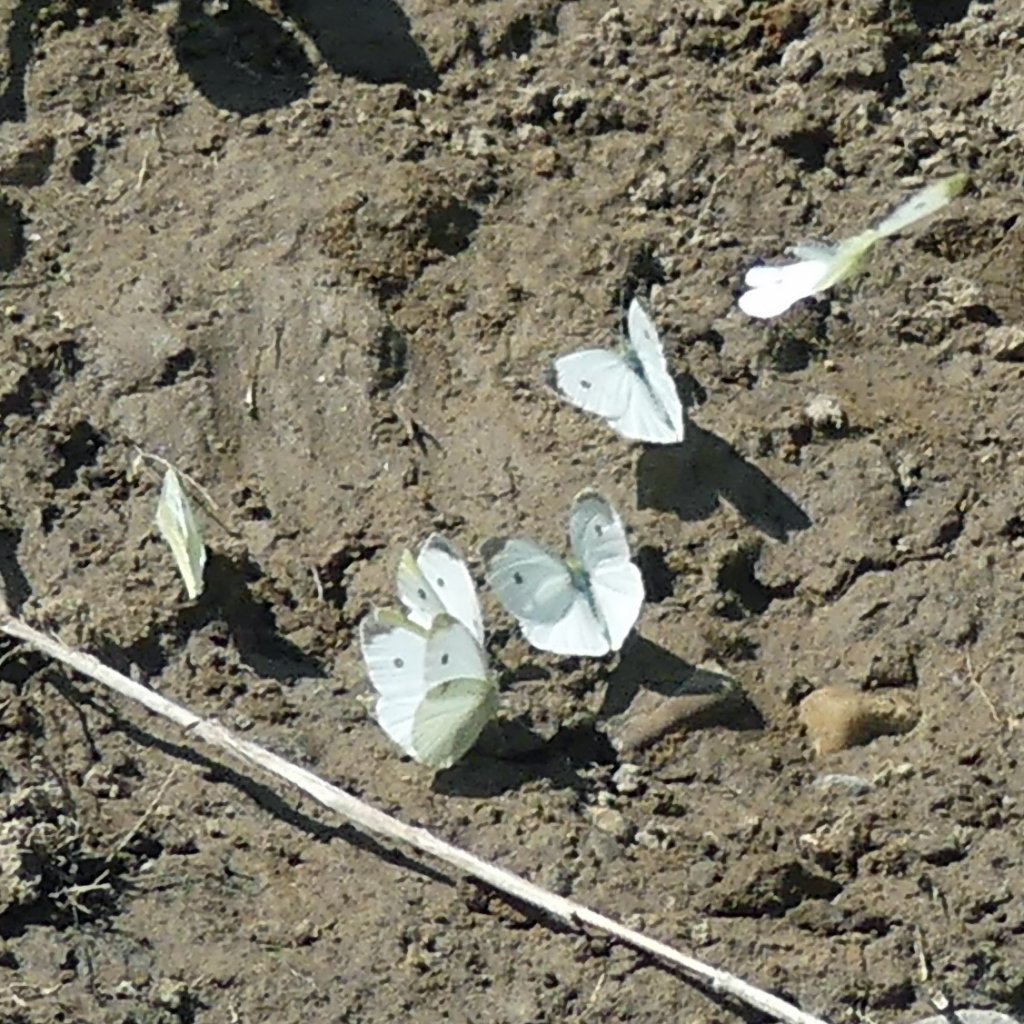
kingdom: Animalia
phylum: Arthropoda
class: Insecta
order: Lepidoptera
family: Pieridae
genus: Pieris
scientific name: Pieris rapae
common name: Cabbage White
